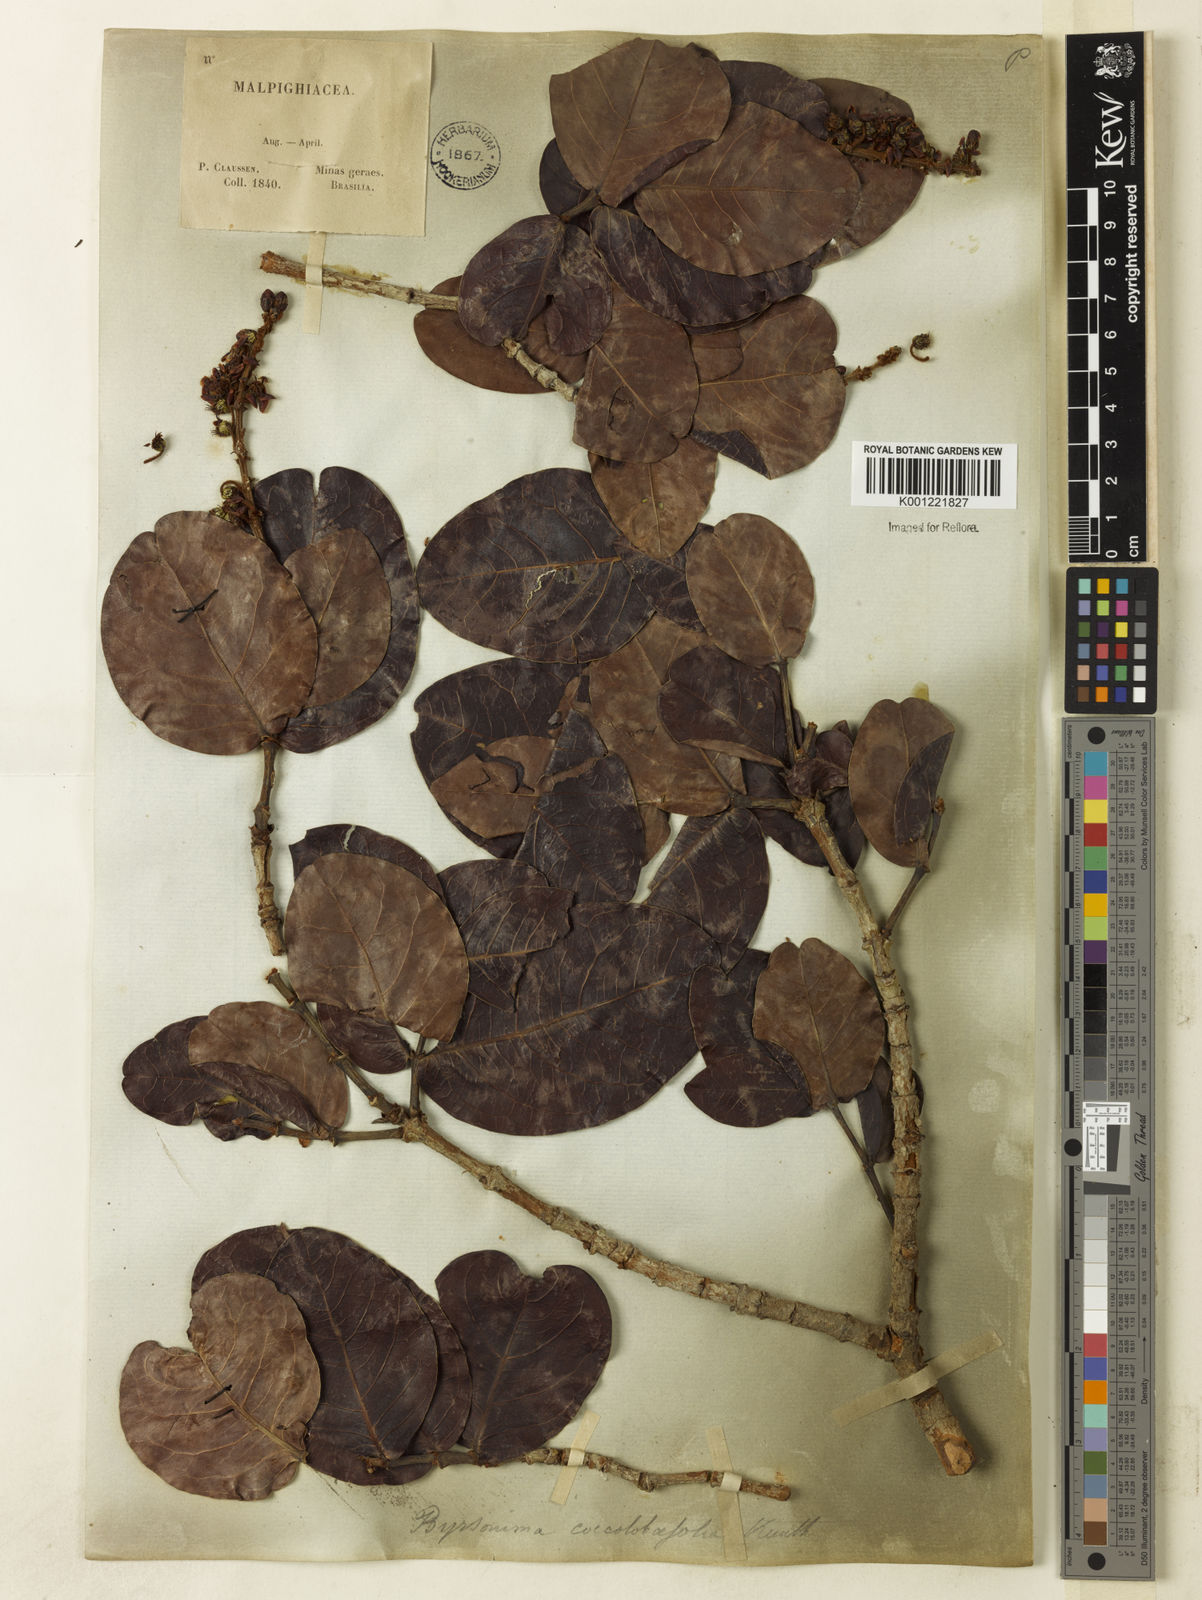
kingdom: Plantae
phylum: Tracheophyta
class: Magnoliopsida
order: Malpighiales
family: Malpighiaceae
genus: Byrsonima
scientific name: Byrsonima coccolobifolia
